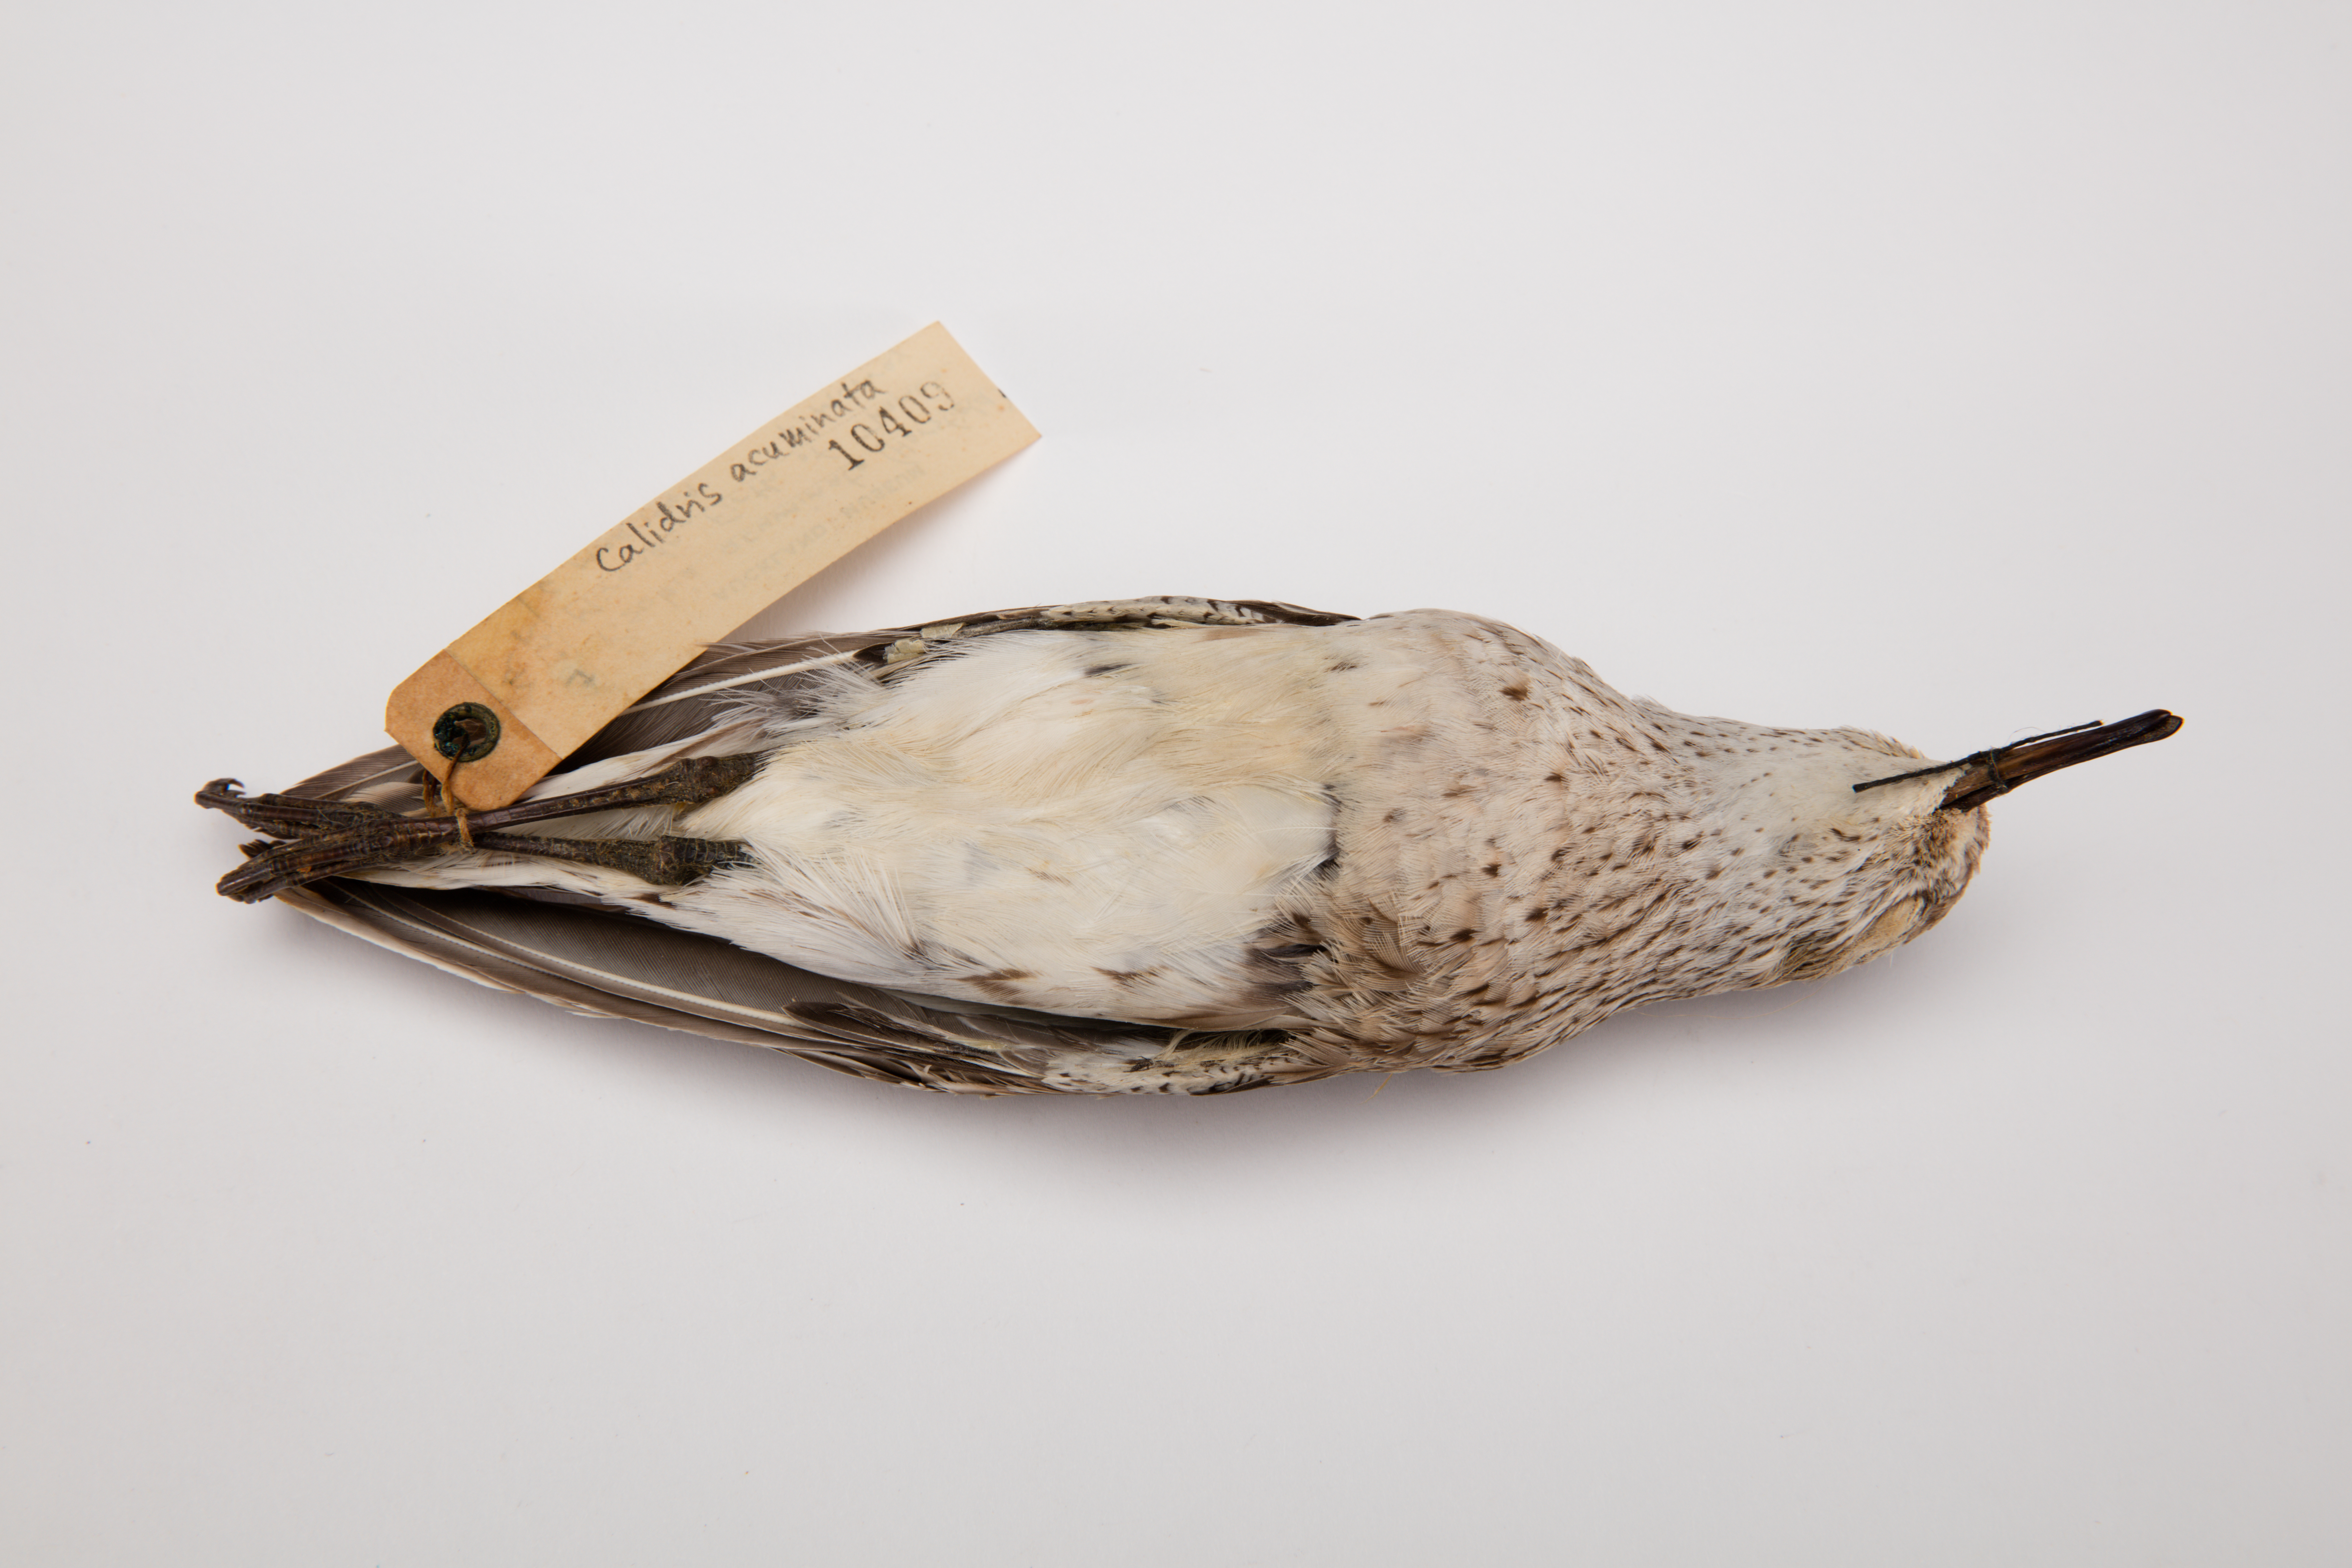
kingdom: Animalia
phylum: Chordata
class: Aves
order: Charadriiformes
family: Scolopacidae
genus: Calidris
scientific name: Calidris acuminata
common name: Sharp-tailed sandpiper
